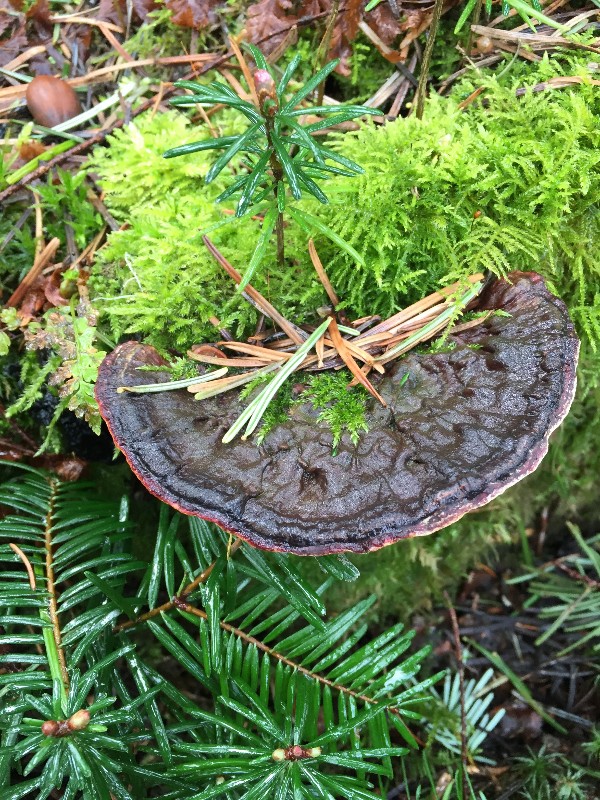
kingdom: Fungi
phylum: Basidiomycota
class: Agaricomycetes
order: Russulales
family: Bondarzewiaceae
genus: Heterobasidion
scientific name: Heterobasidion
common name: rodfordærver
